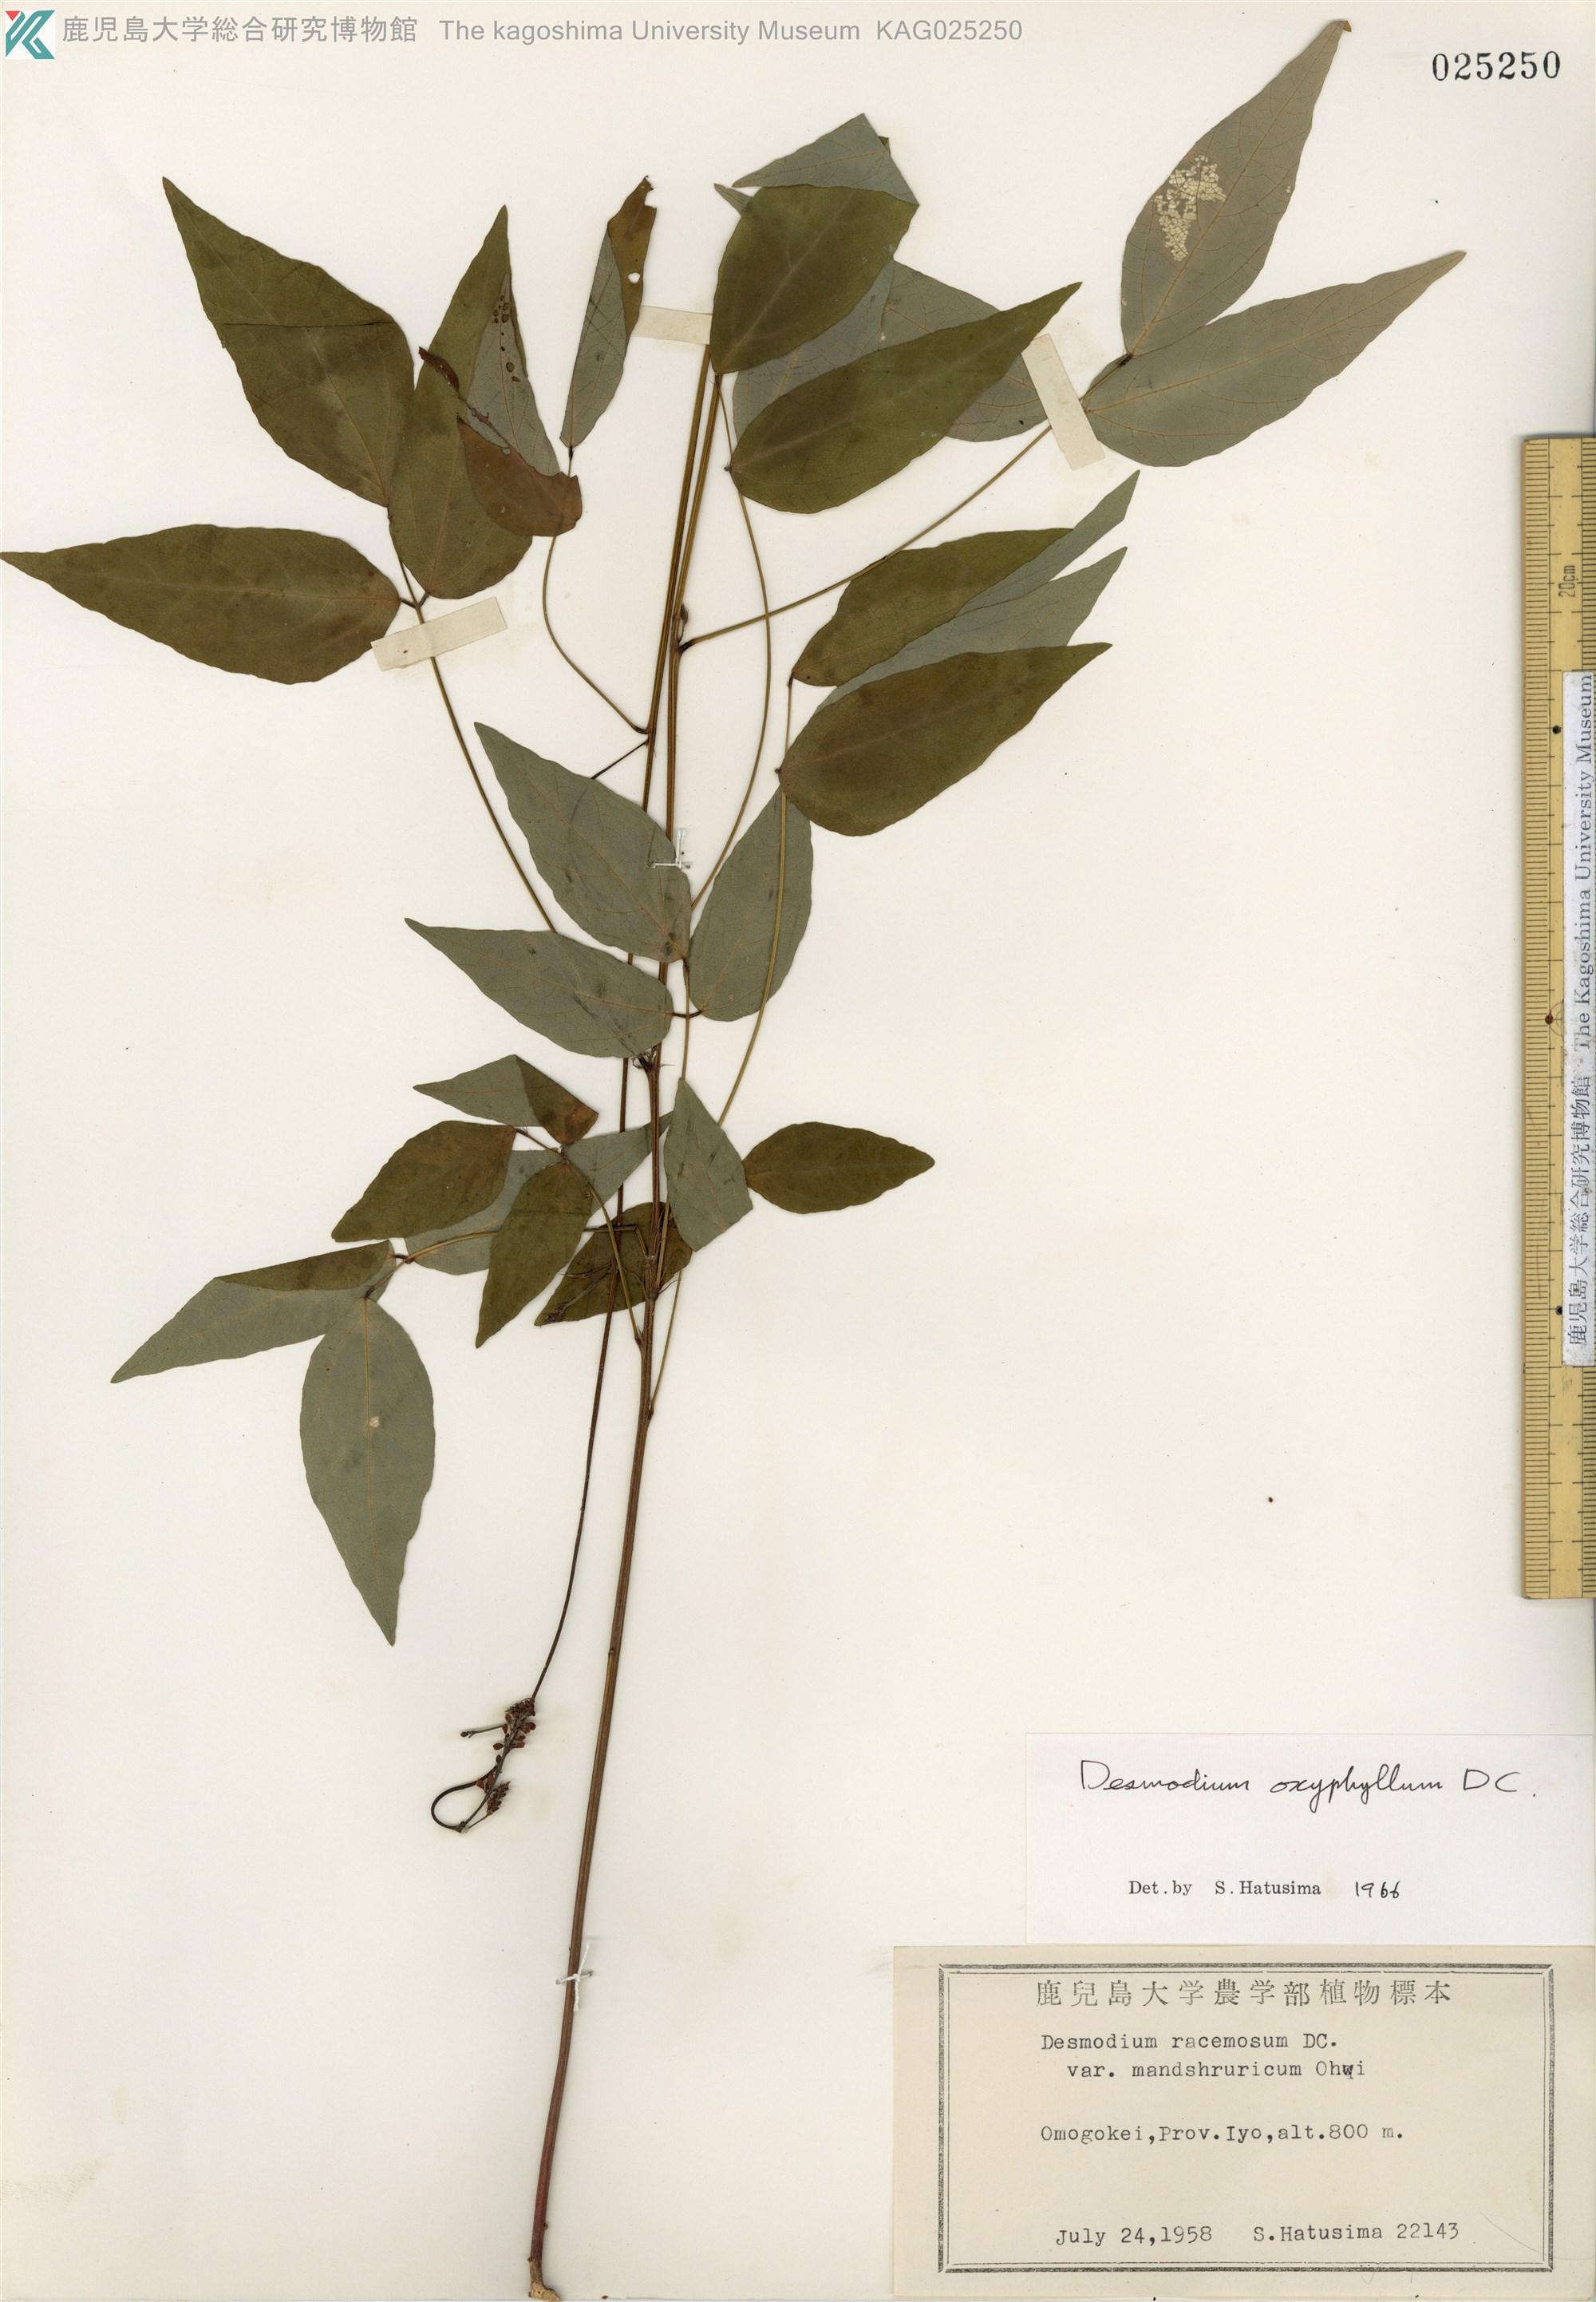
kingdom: Plantae
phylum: Tracheophyta
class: Magnoliopsida
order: Fabales
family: Fabaceae
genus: Hylodesmum
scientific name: Hylodesmum podocarpum
